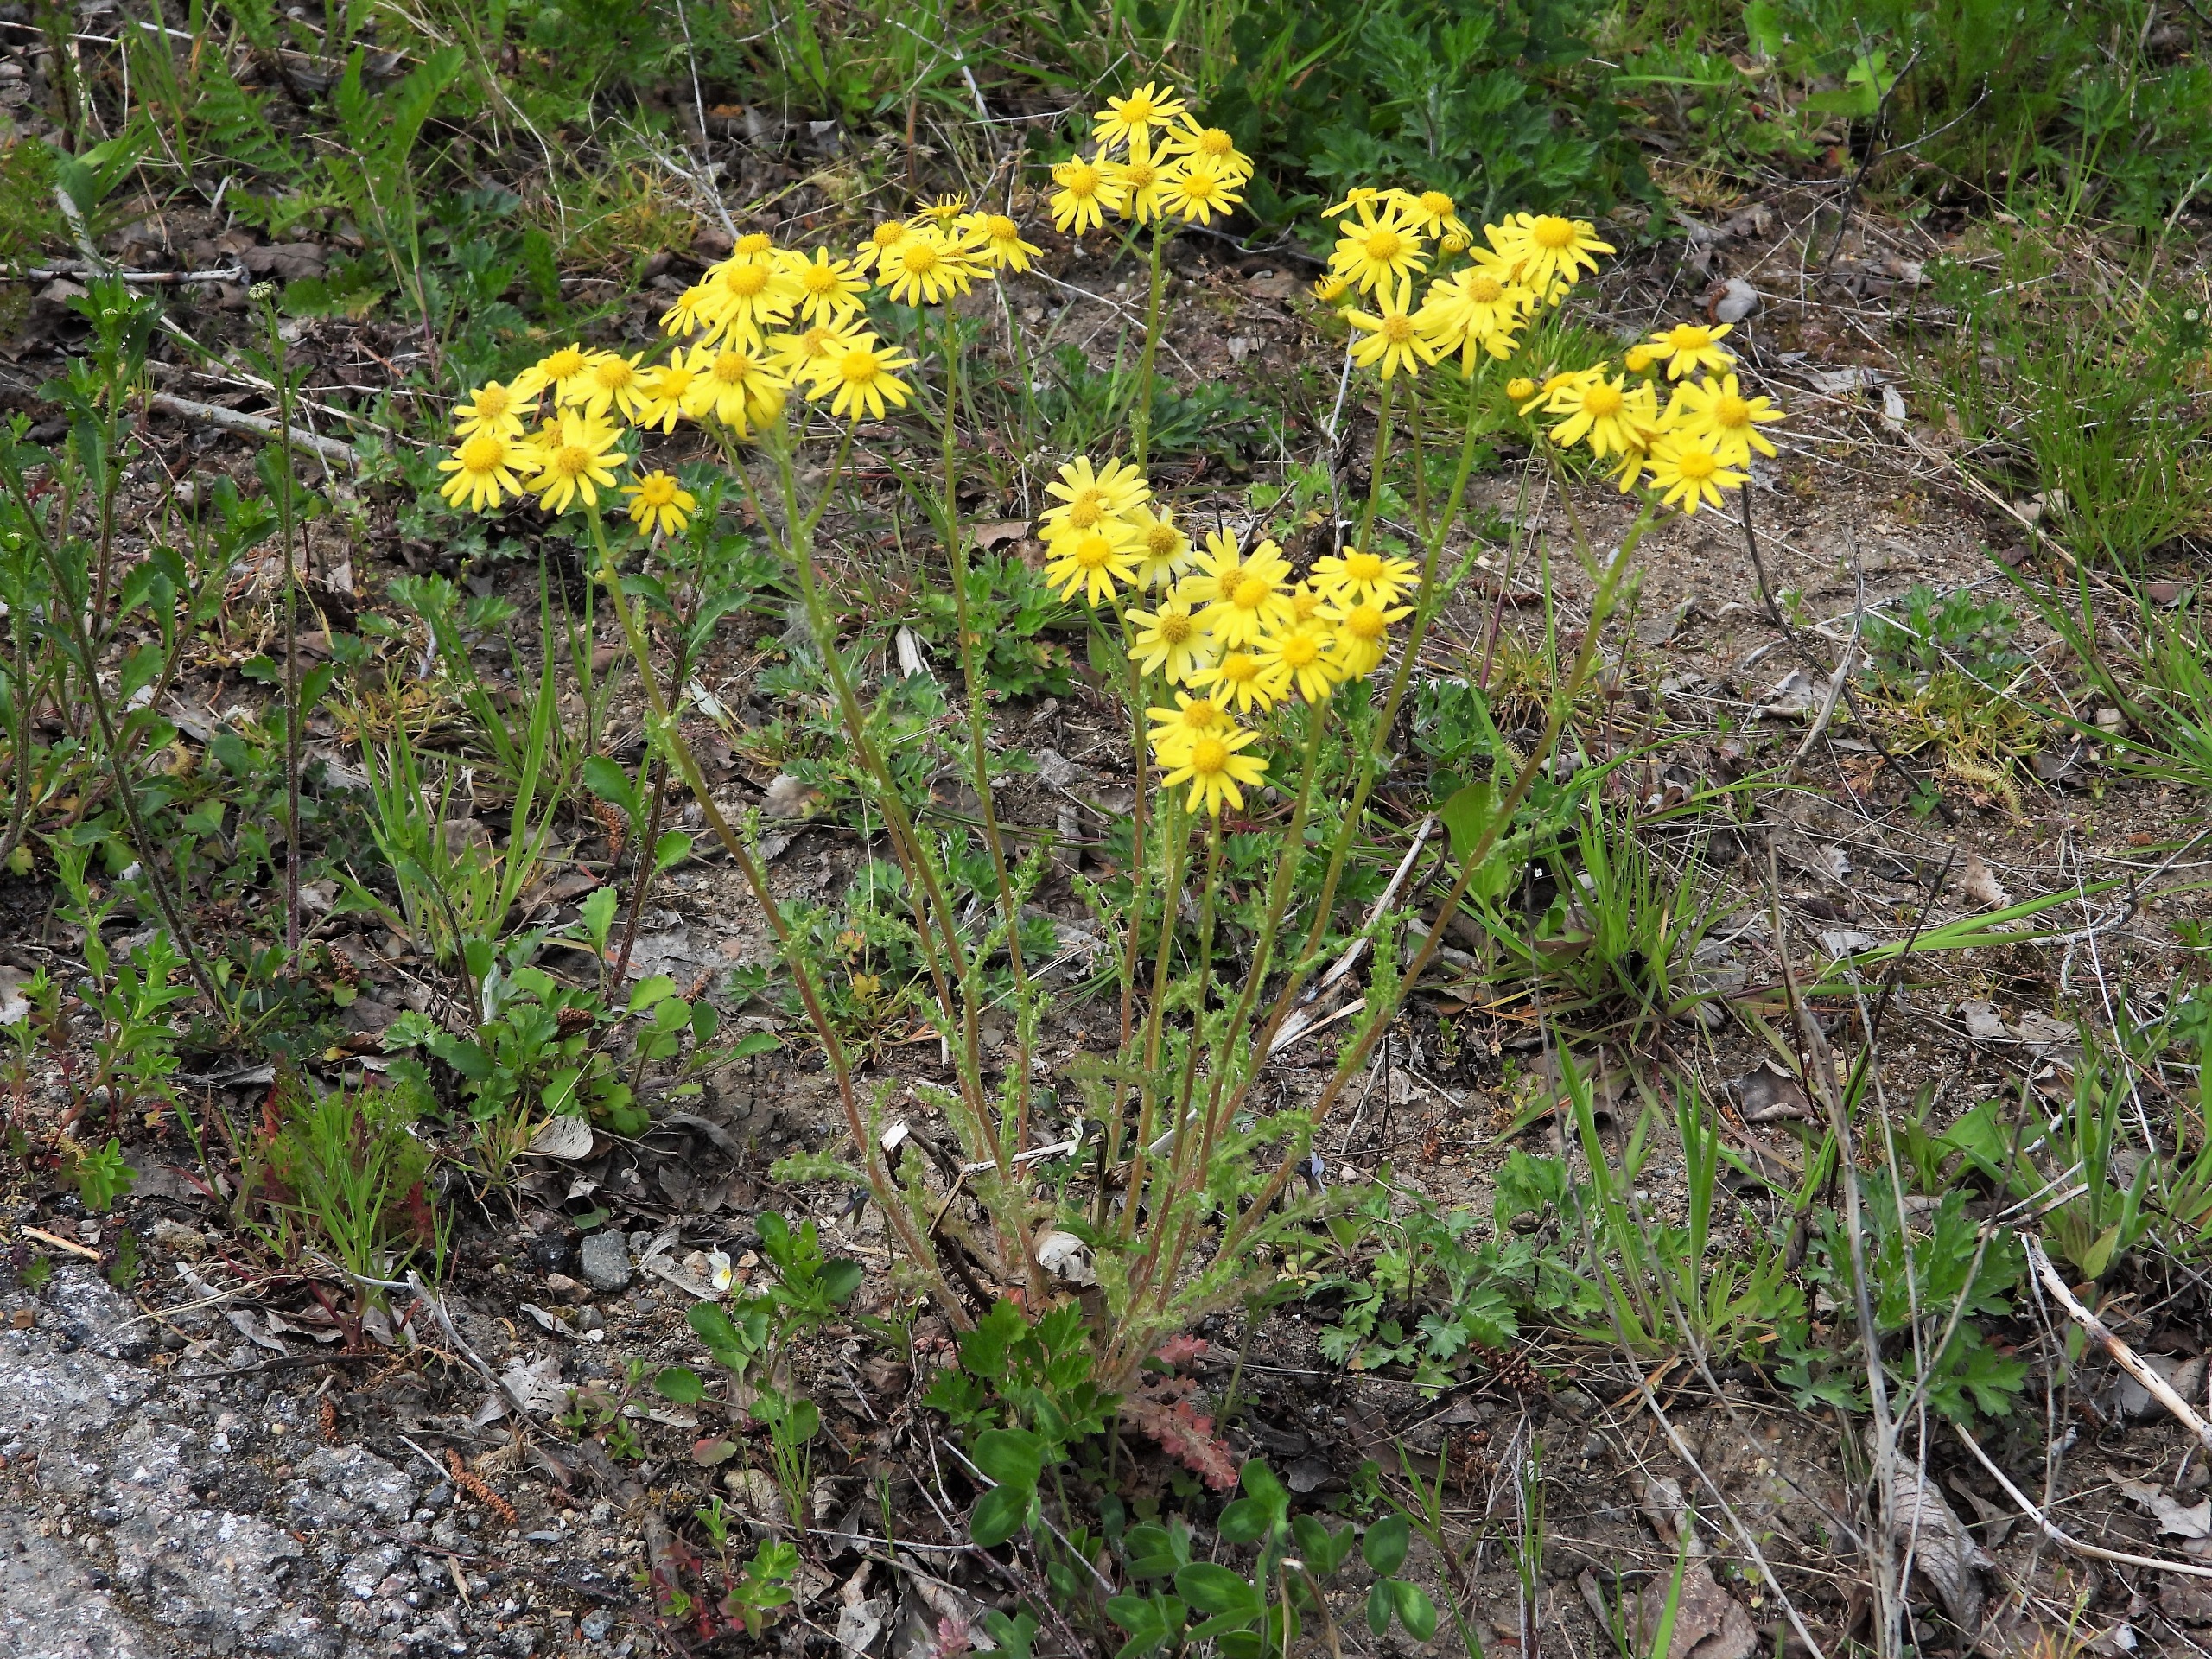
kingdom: Plantae
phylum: Tracheophyta
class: Magnoliopsida
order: Asterales
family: Asteraceae
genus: Senecio
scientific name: Senecio leucanthemifolius
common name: Vår-brandbæger
